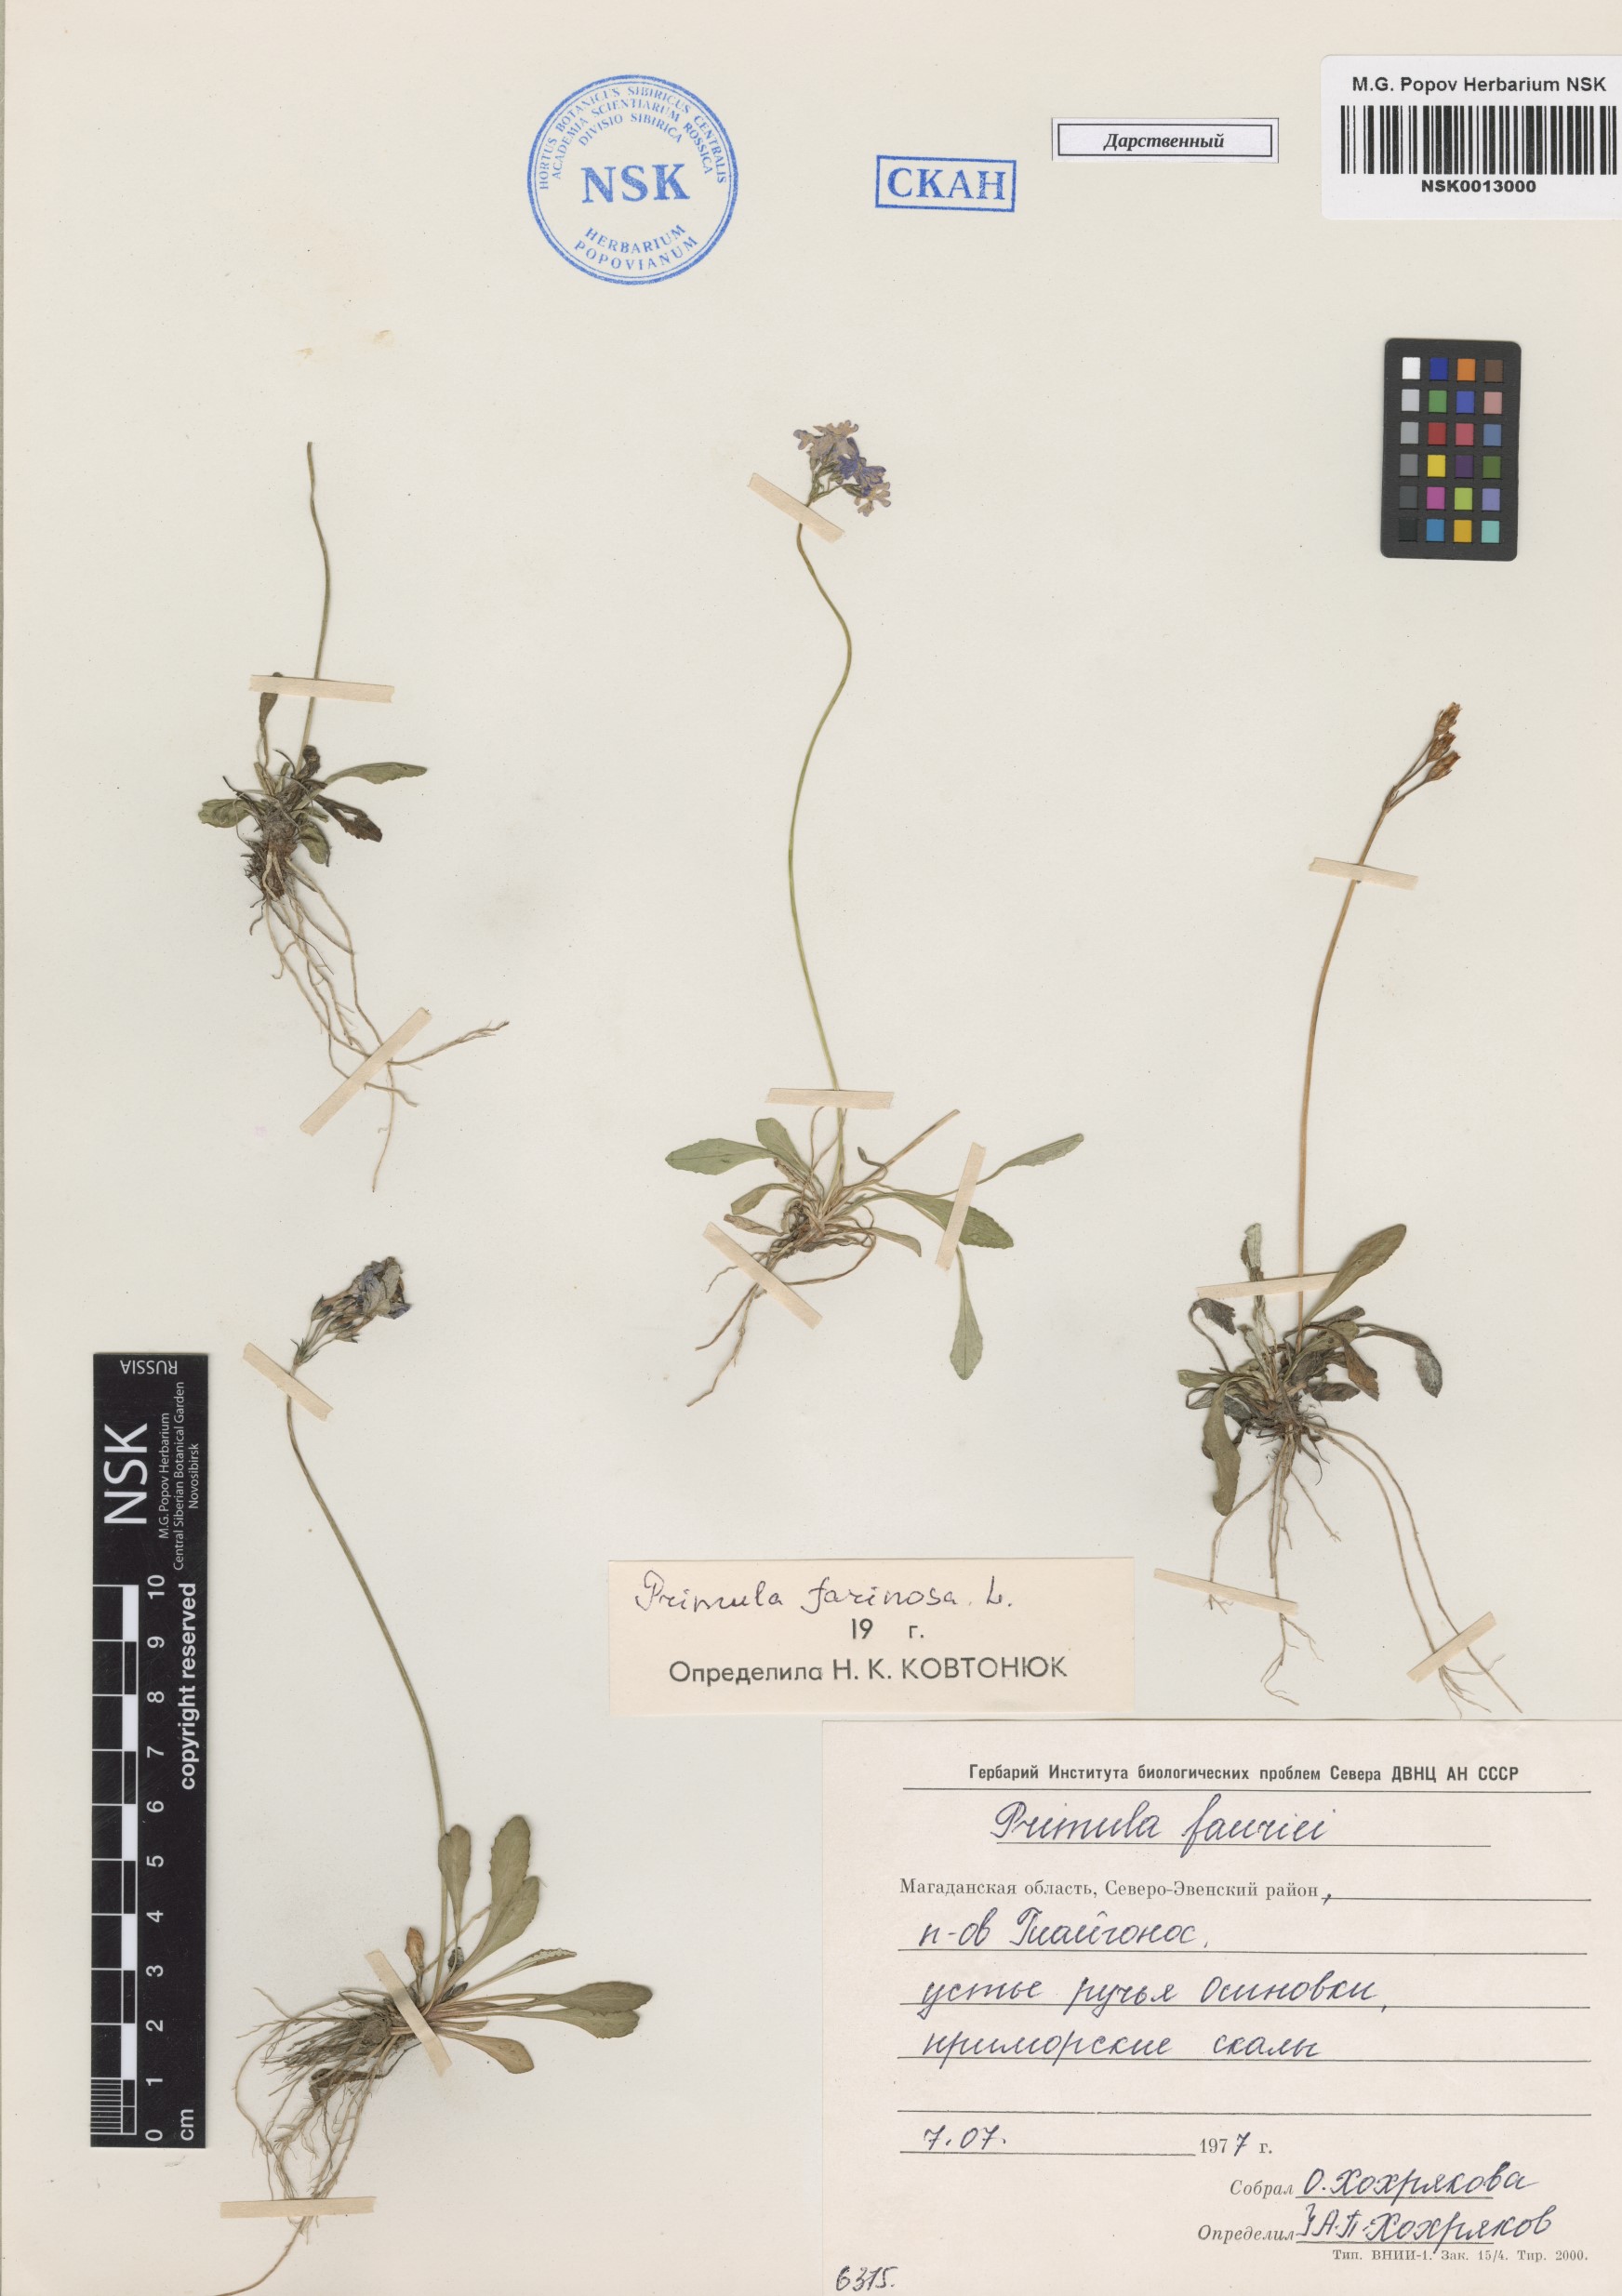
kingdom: Plantae
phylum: Tracheophyta
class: Magnoliopsida
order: Ericales
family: Primulaceae
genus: Primula
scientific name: Primula farinosa
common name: Bird's-eye primrose
